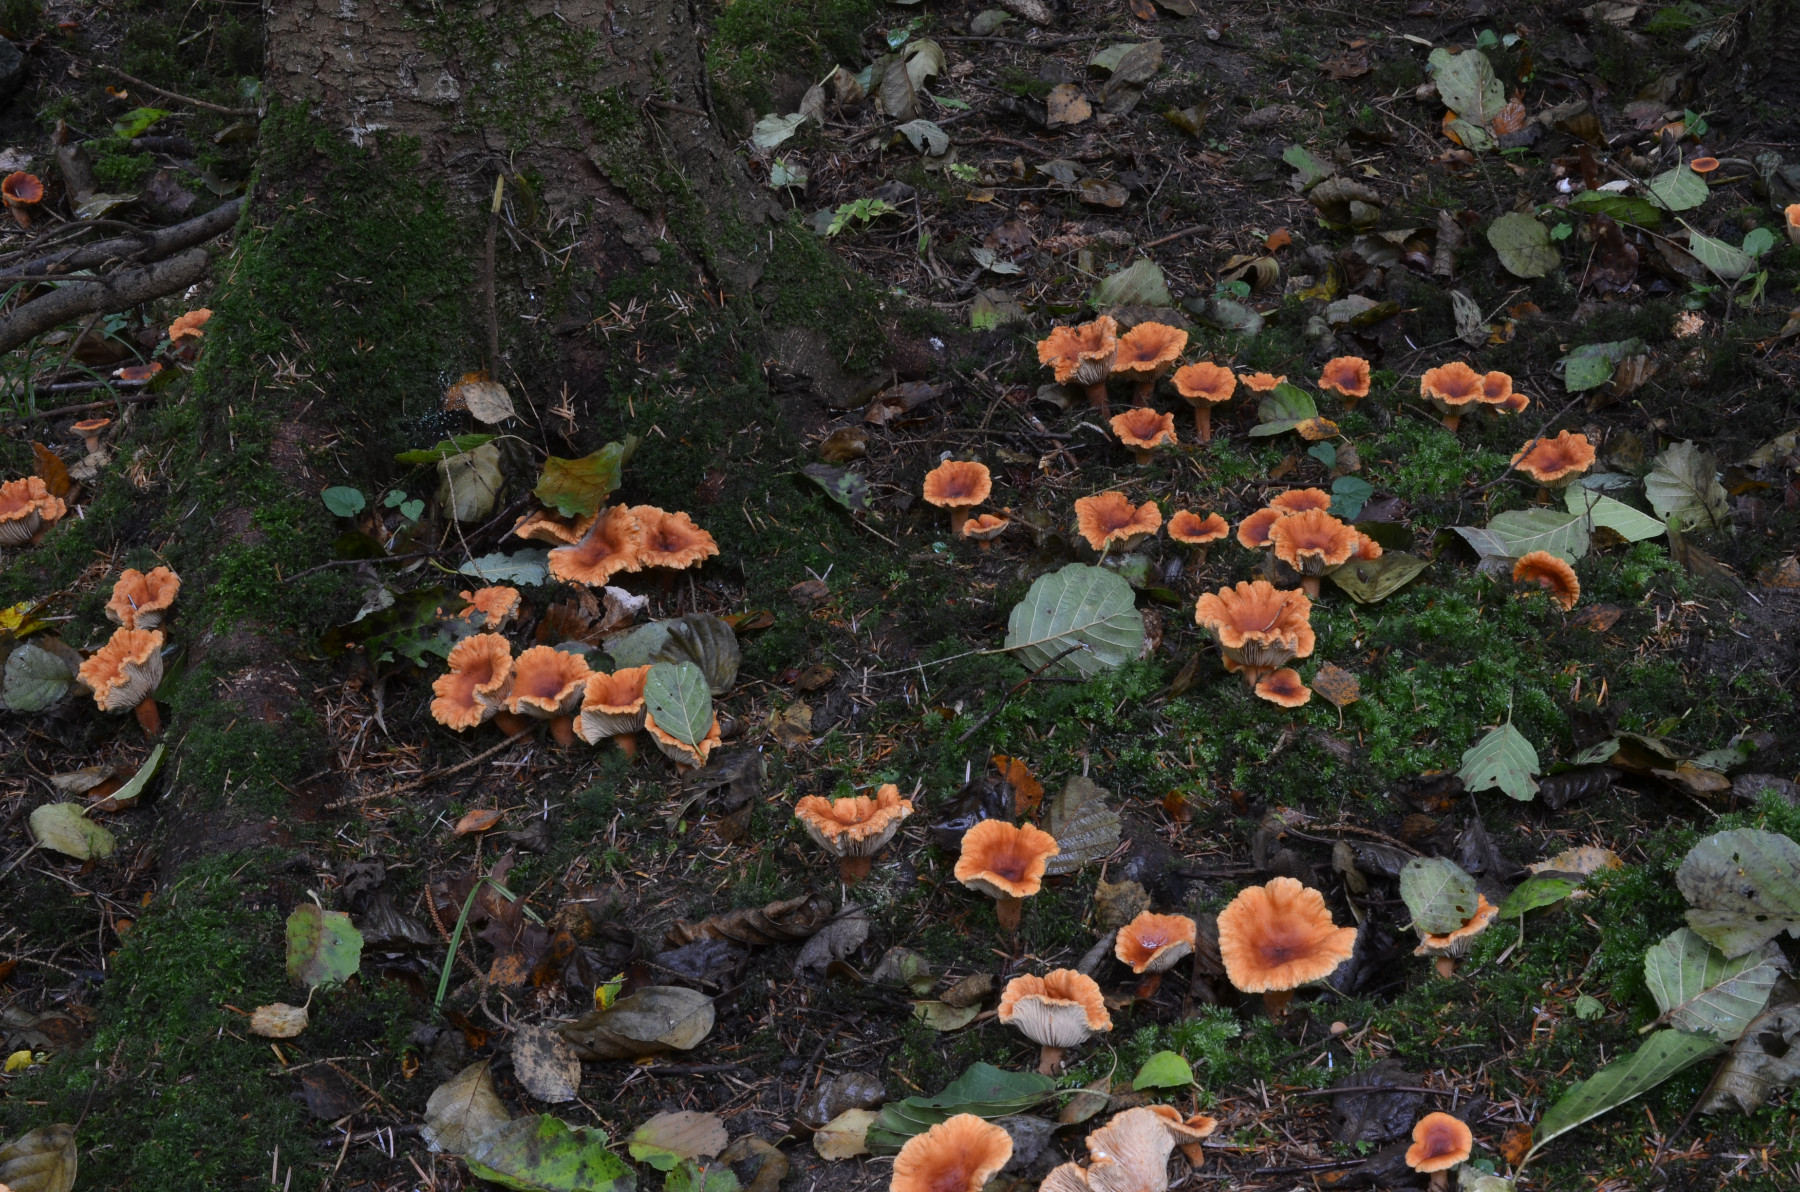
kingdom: Fungi
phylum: Basidiomycota
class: Agaricomycetes
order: Russulales
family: Russulaceae
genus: Lactarius
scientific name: Lactarius fulvissimus
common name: ræve-mælkehat
